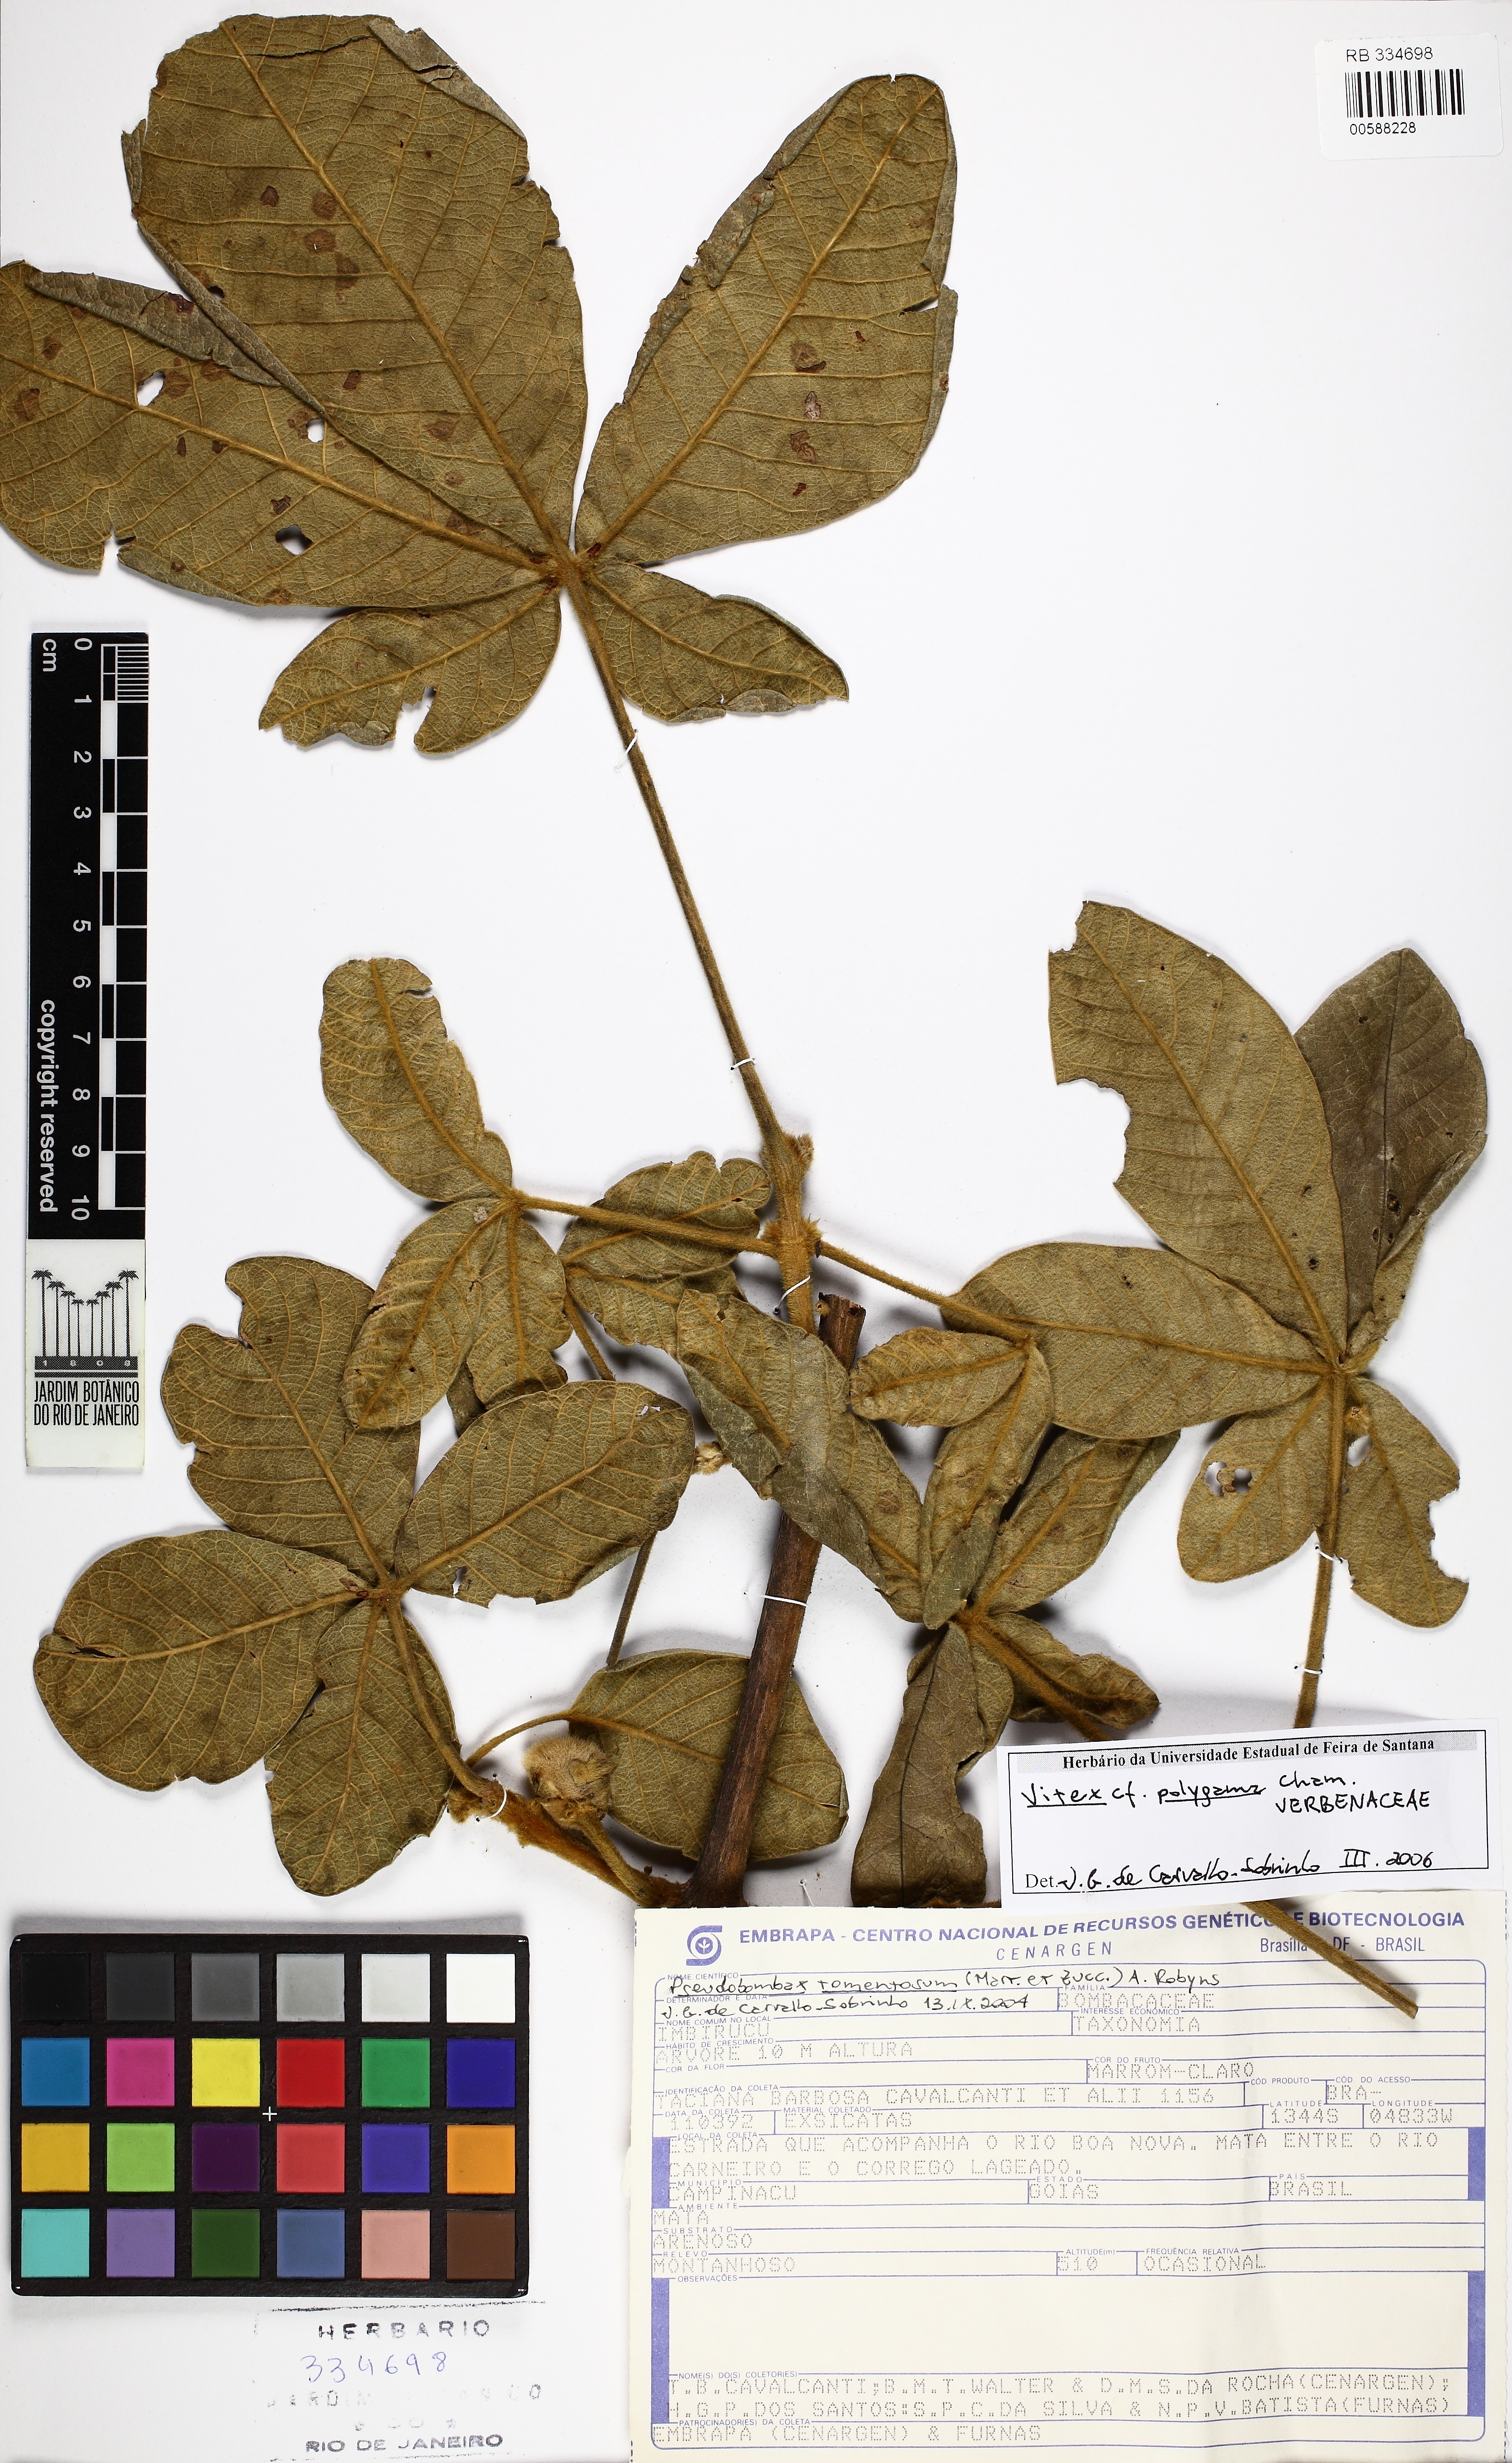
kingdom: Plantae
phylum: Tracheophyta
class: Magnoliopsida
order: Lamiales
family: Lamiaceae
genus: Vitex
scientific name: Vitex polygama
